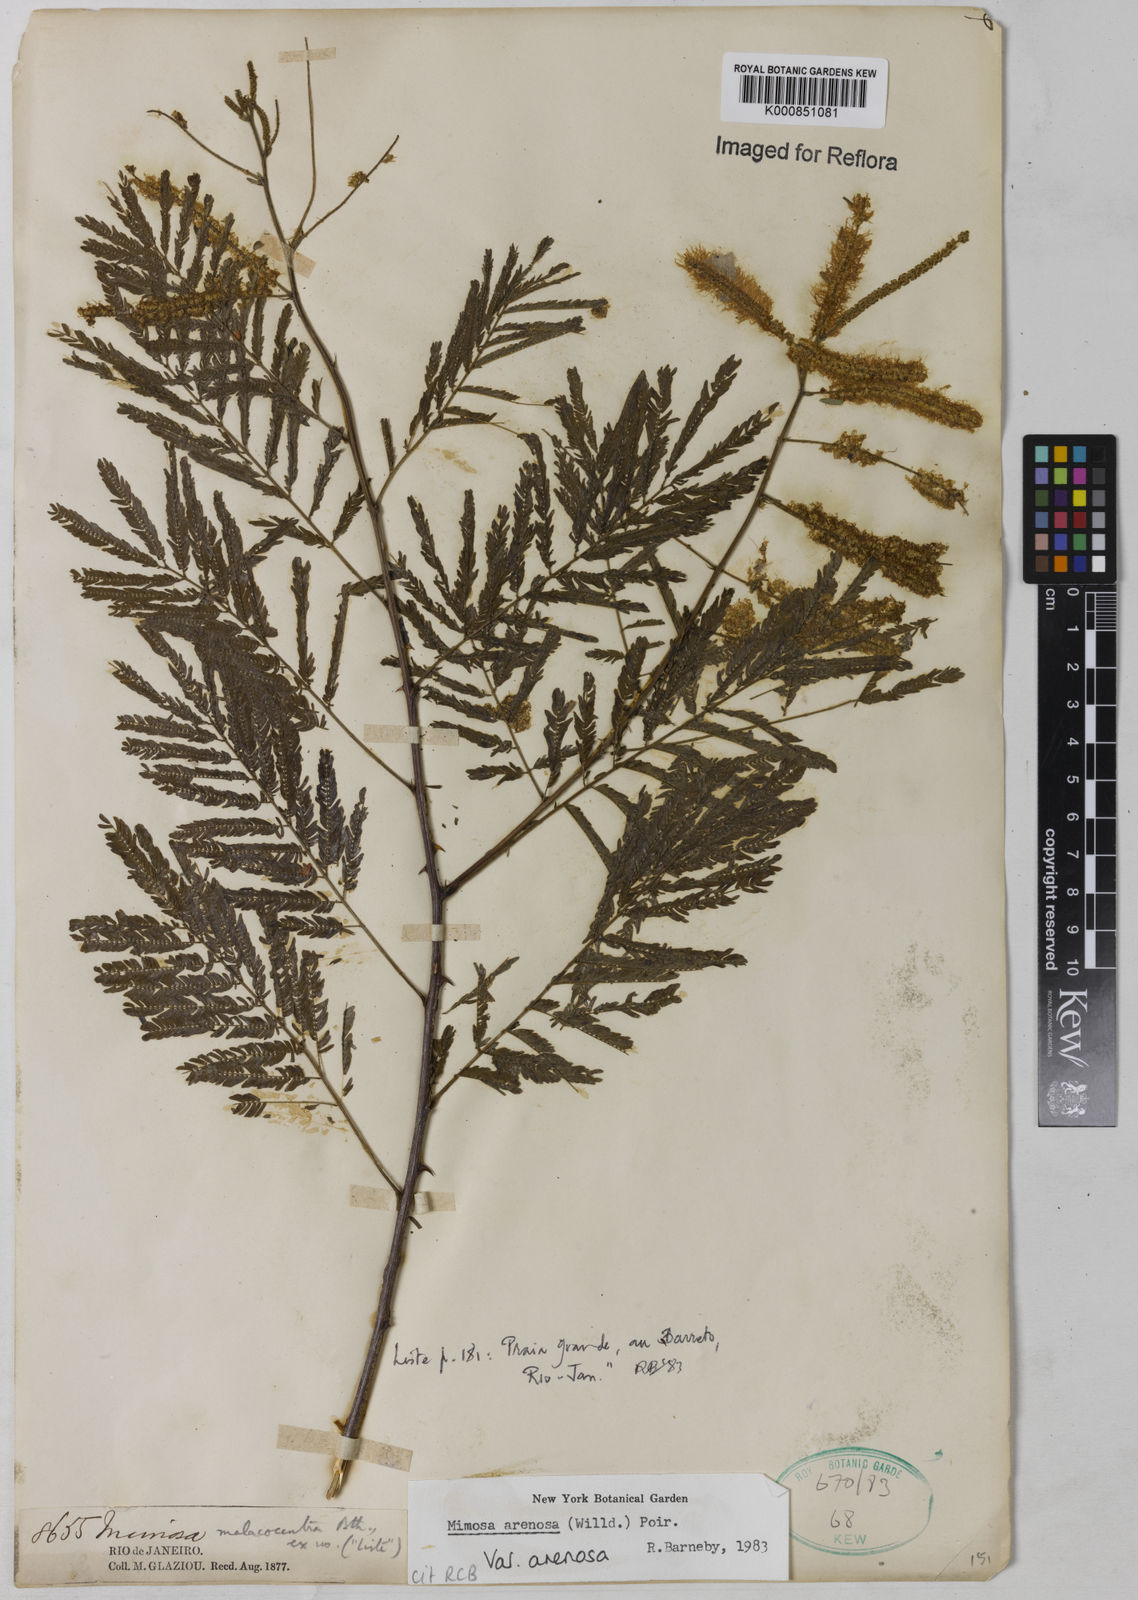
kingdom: Plantae
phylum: Tracheophyta
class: Magnoliopsida
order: Fabales
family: Fabaceae
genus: Mimosa
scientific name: Mimosa arenosa
